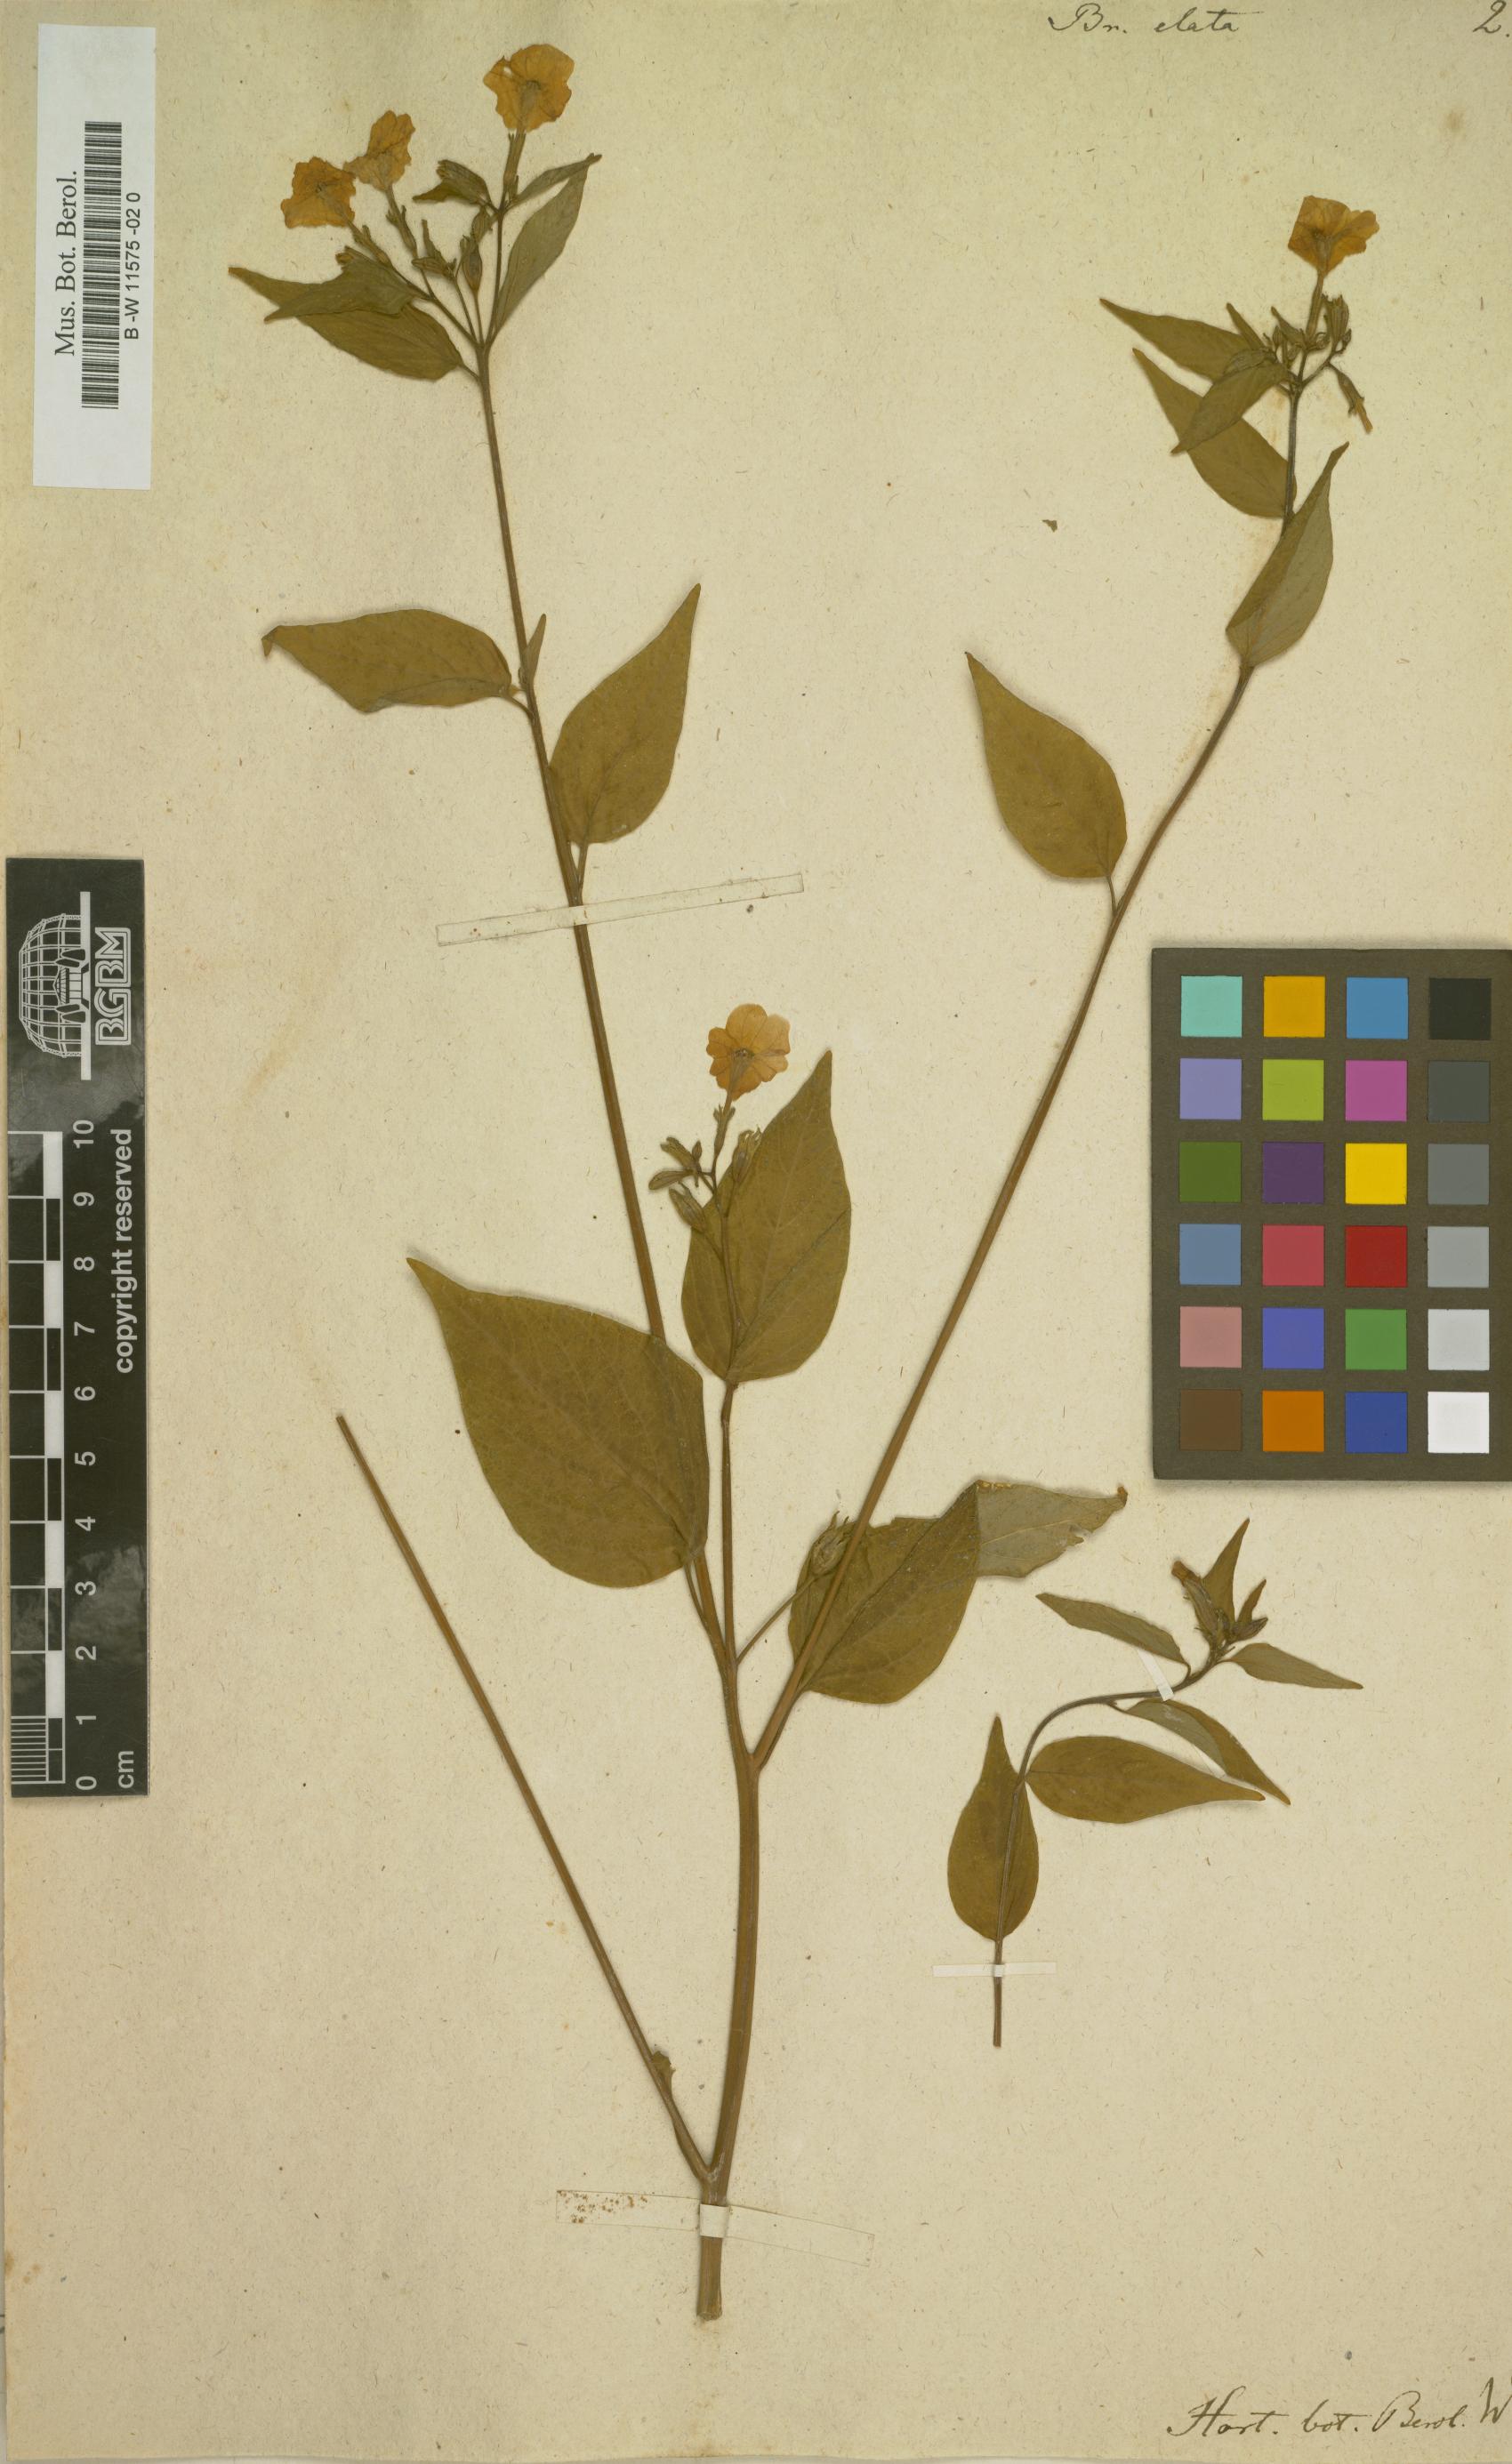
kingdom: Plantae
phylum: Tracheophyta
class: Magnoliopsida
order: Solanales
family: Solanaceae
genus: Browallia
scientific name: Browallia americana
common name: Jamaican forget-me-not
